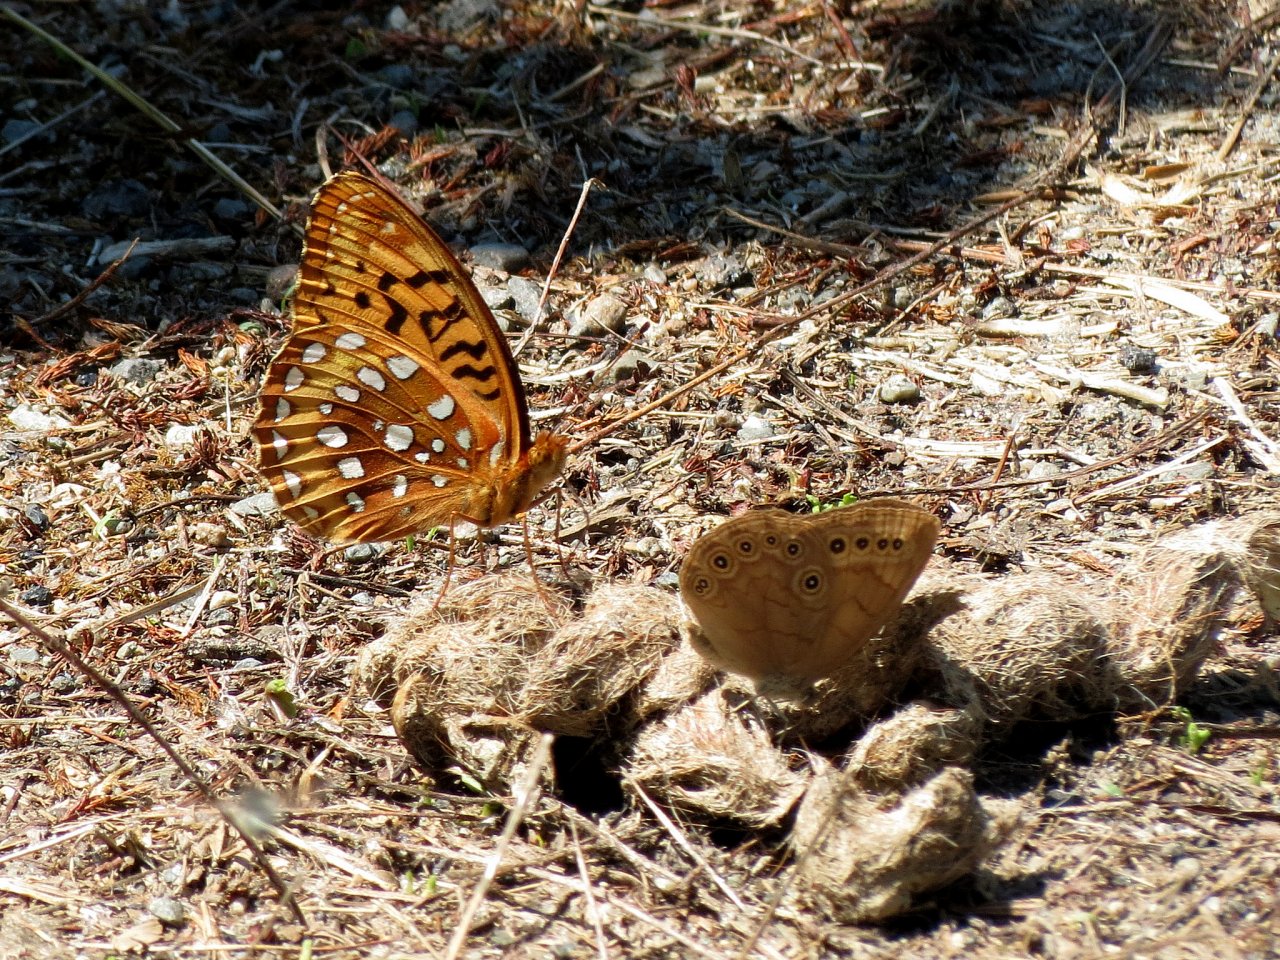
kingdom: Animalia
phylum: Arthropoda
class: Insecta
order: Lepidoptera
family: Nymphalidae
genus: Speyeria
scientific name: Speyeria cybele
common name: Great Spangled Fritillary
